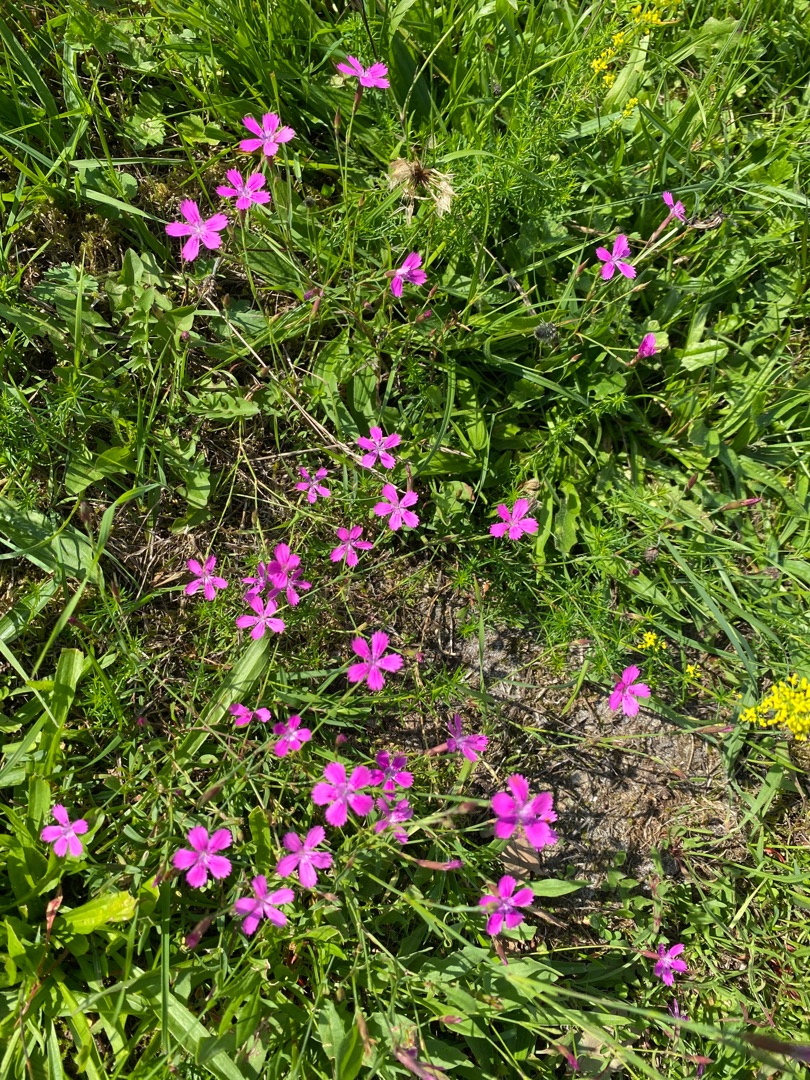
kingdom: Plantae
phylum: Tracheophyta
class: Magnoliopsida
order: Caryophyllales
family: Caryophyllaceae
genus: Dianthus
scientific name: Dianthus deltoides
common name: Bakke-nellike
